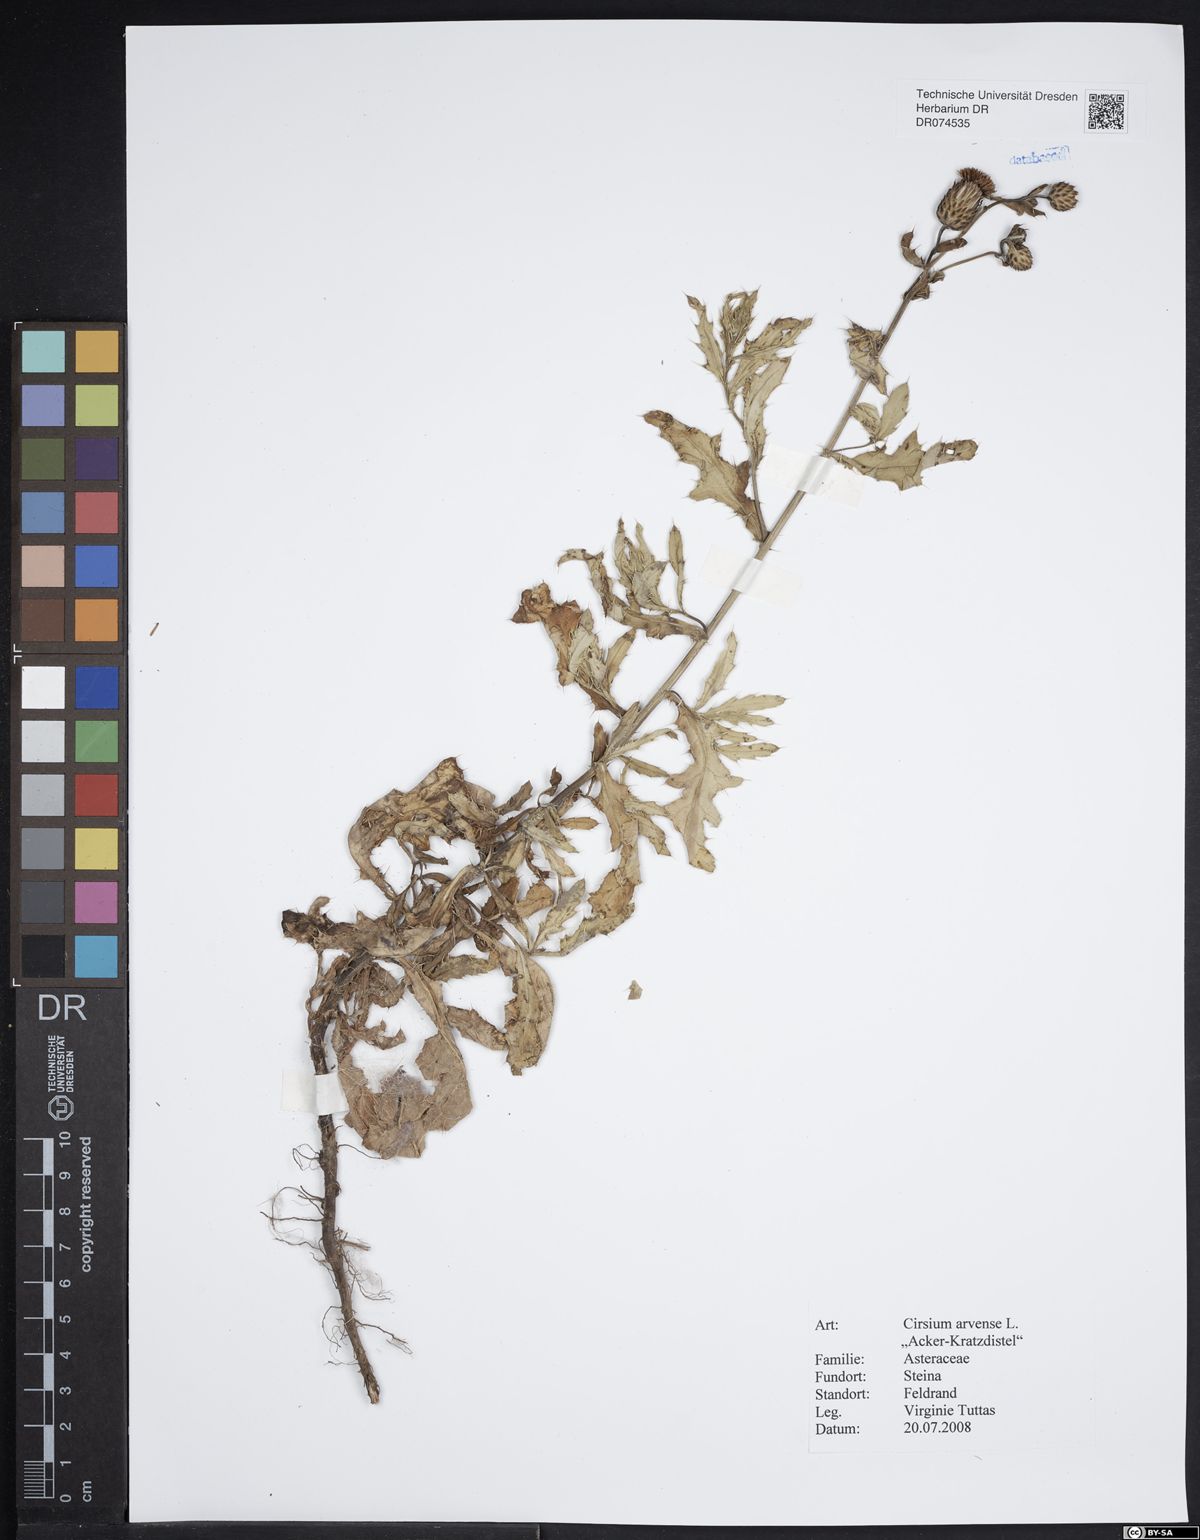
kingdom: Plantae
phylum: Tracheophyta
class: Magnoliopsida
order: Asterales
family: Asteraceae
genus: Cirsium
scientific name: Cirsium arvense
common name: Creeping thistle
